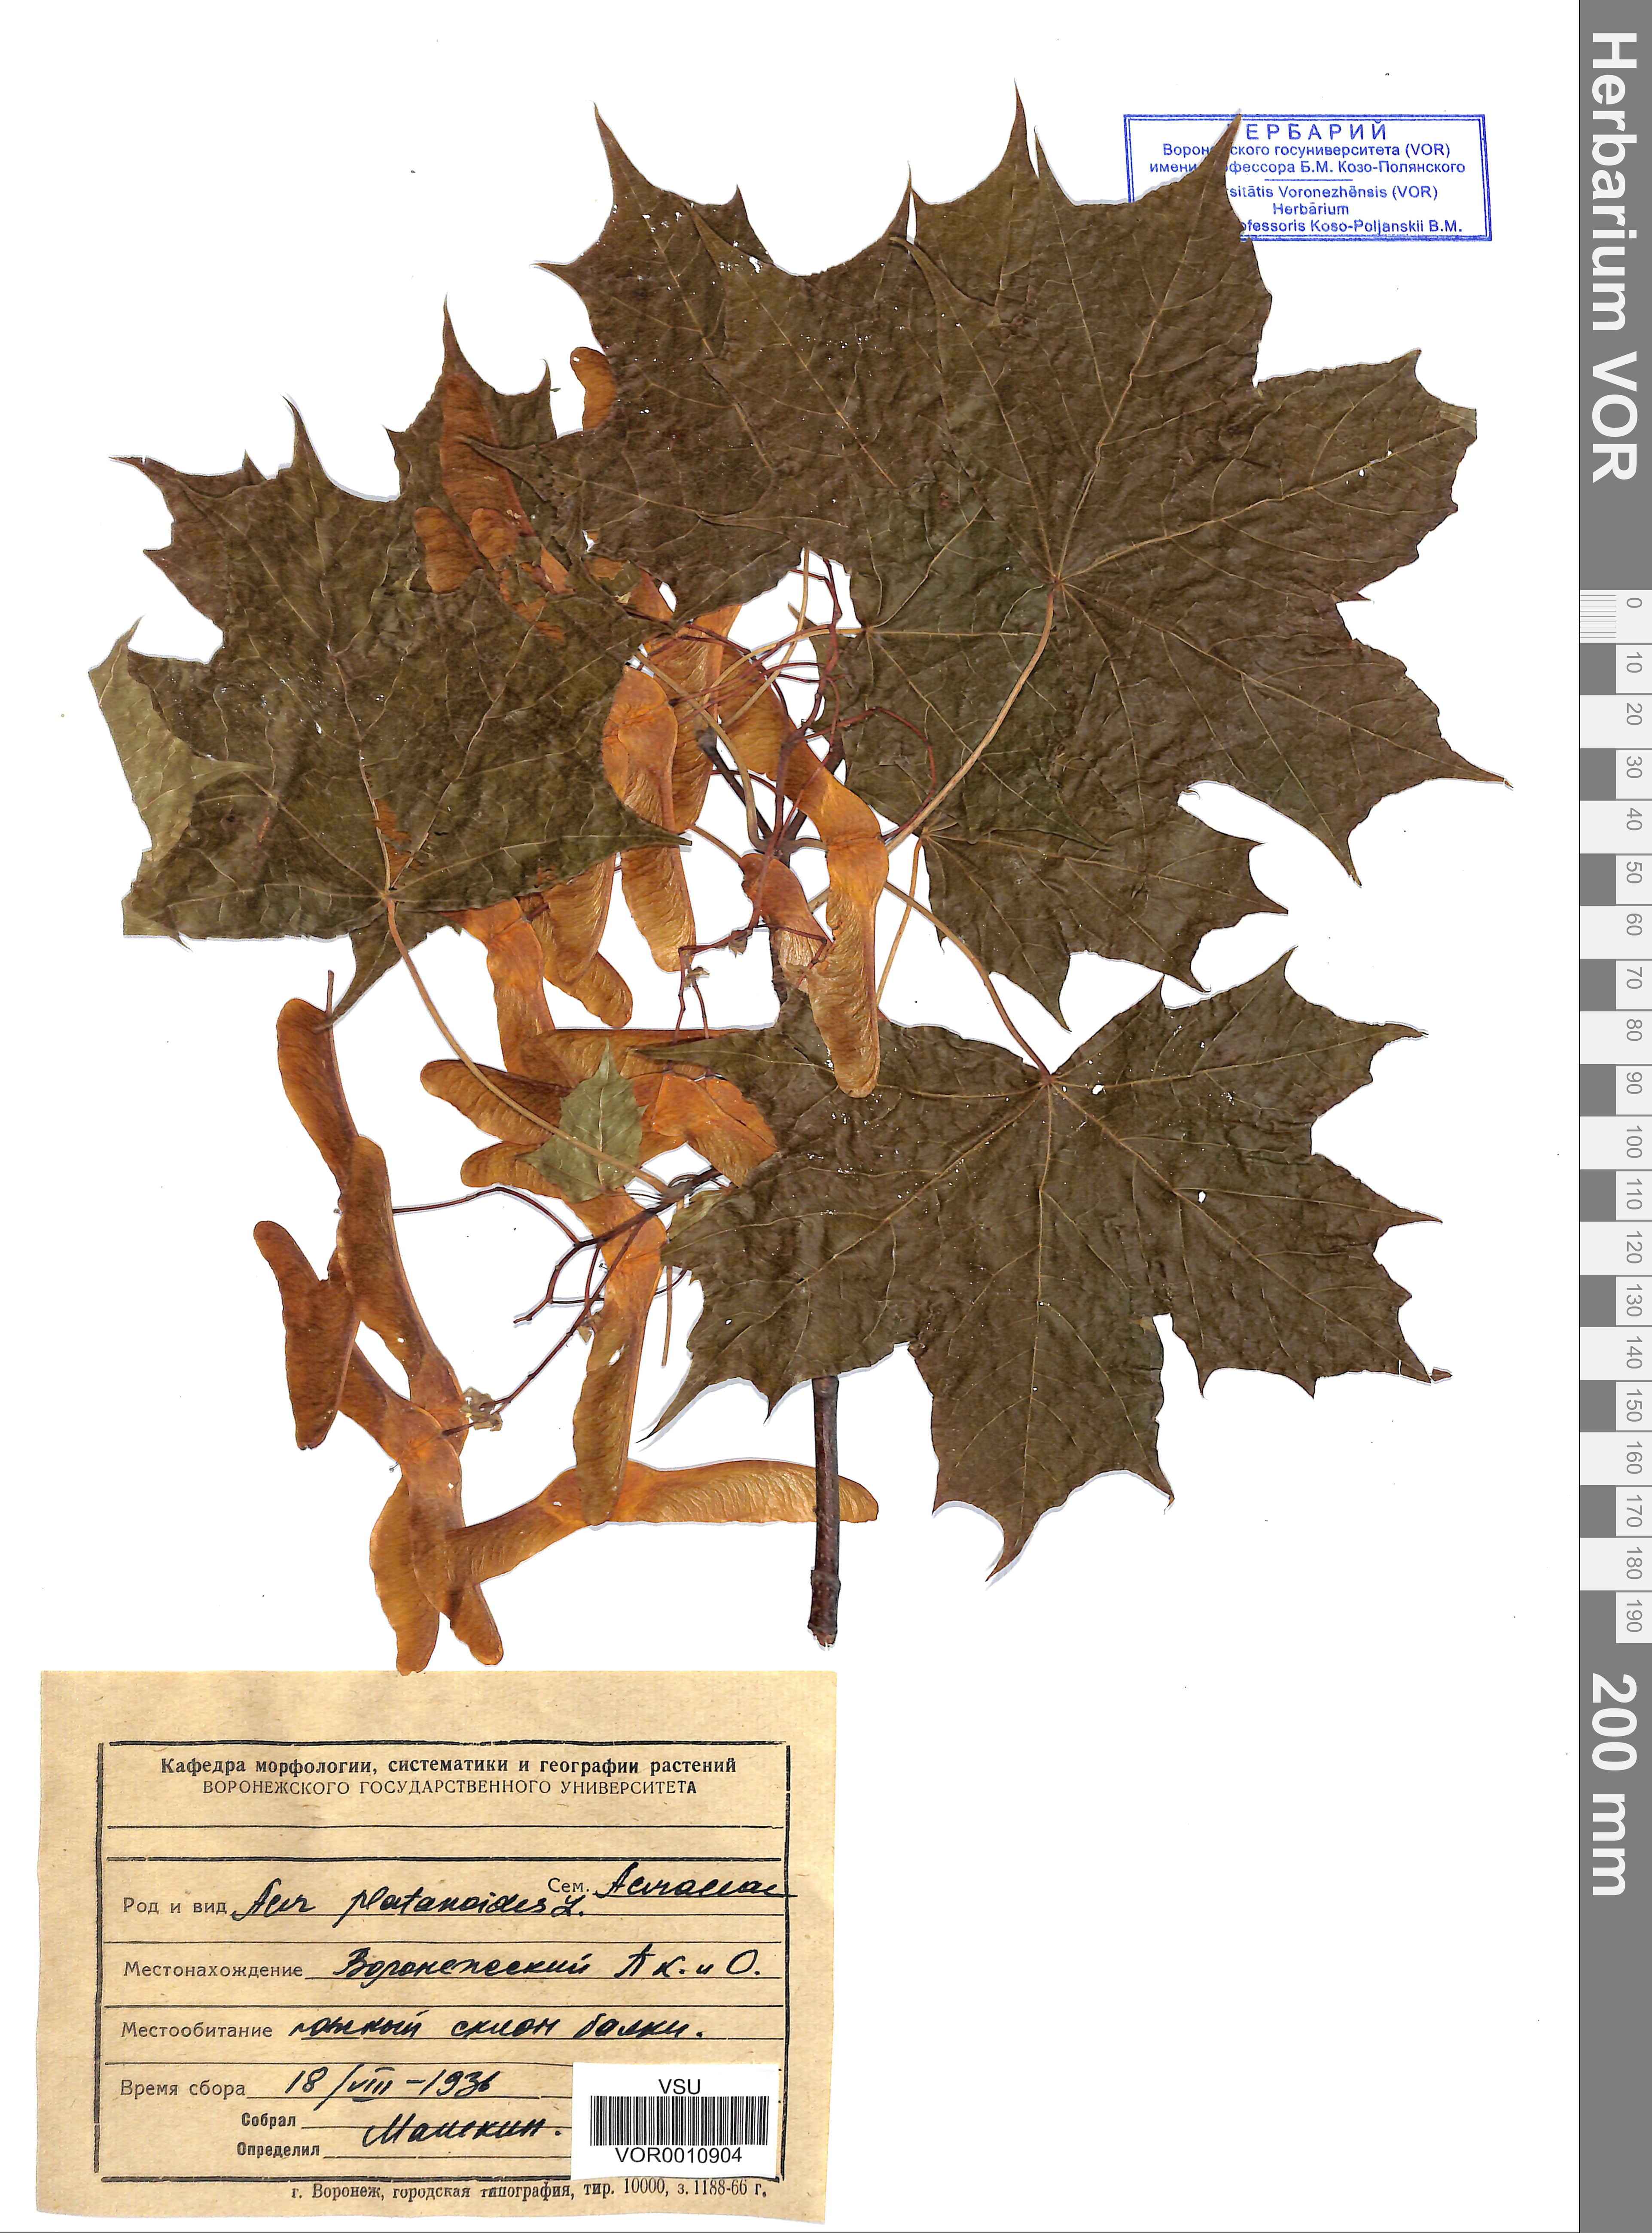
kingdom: Plantae
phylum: Tracheophyta
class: Magnoliopsida
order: Sapindales
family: Sapindaceae
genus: Acer
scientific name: Acer platanoides
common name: Norway maple
